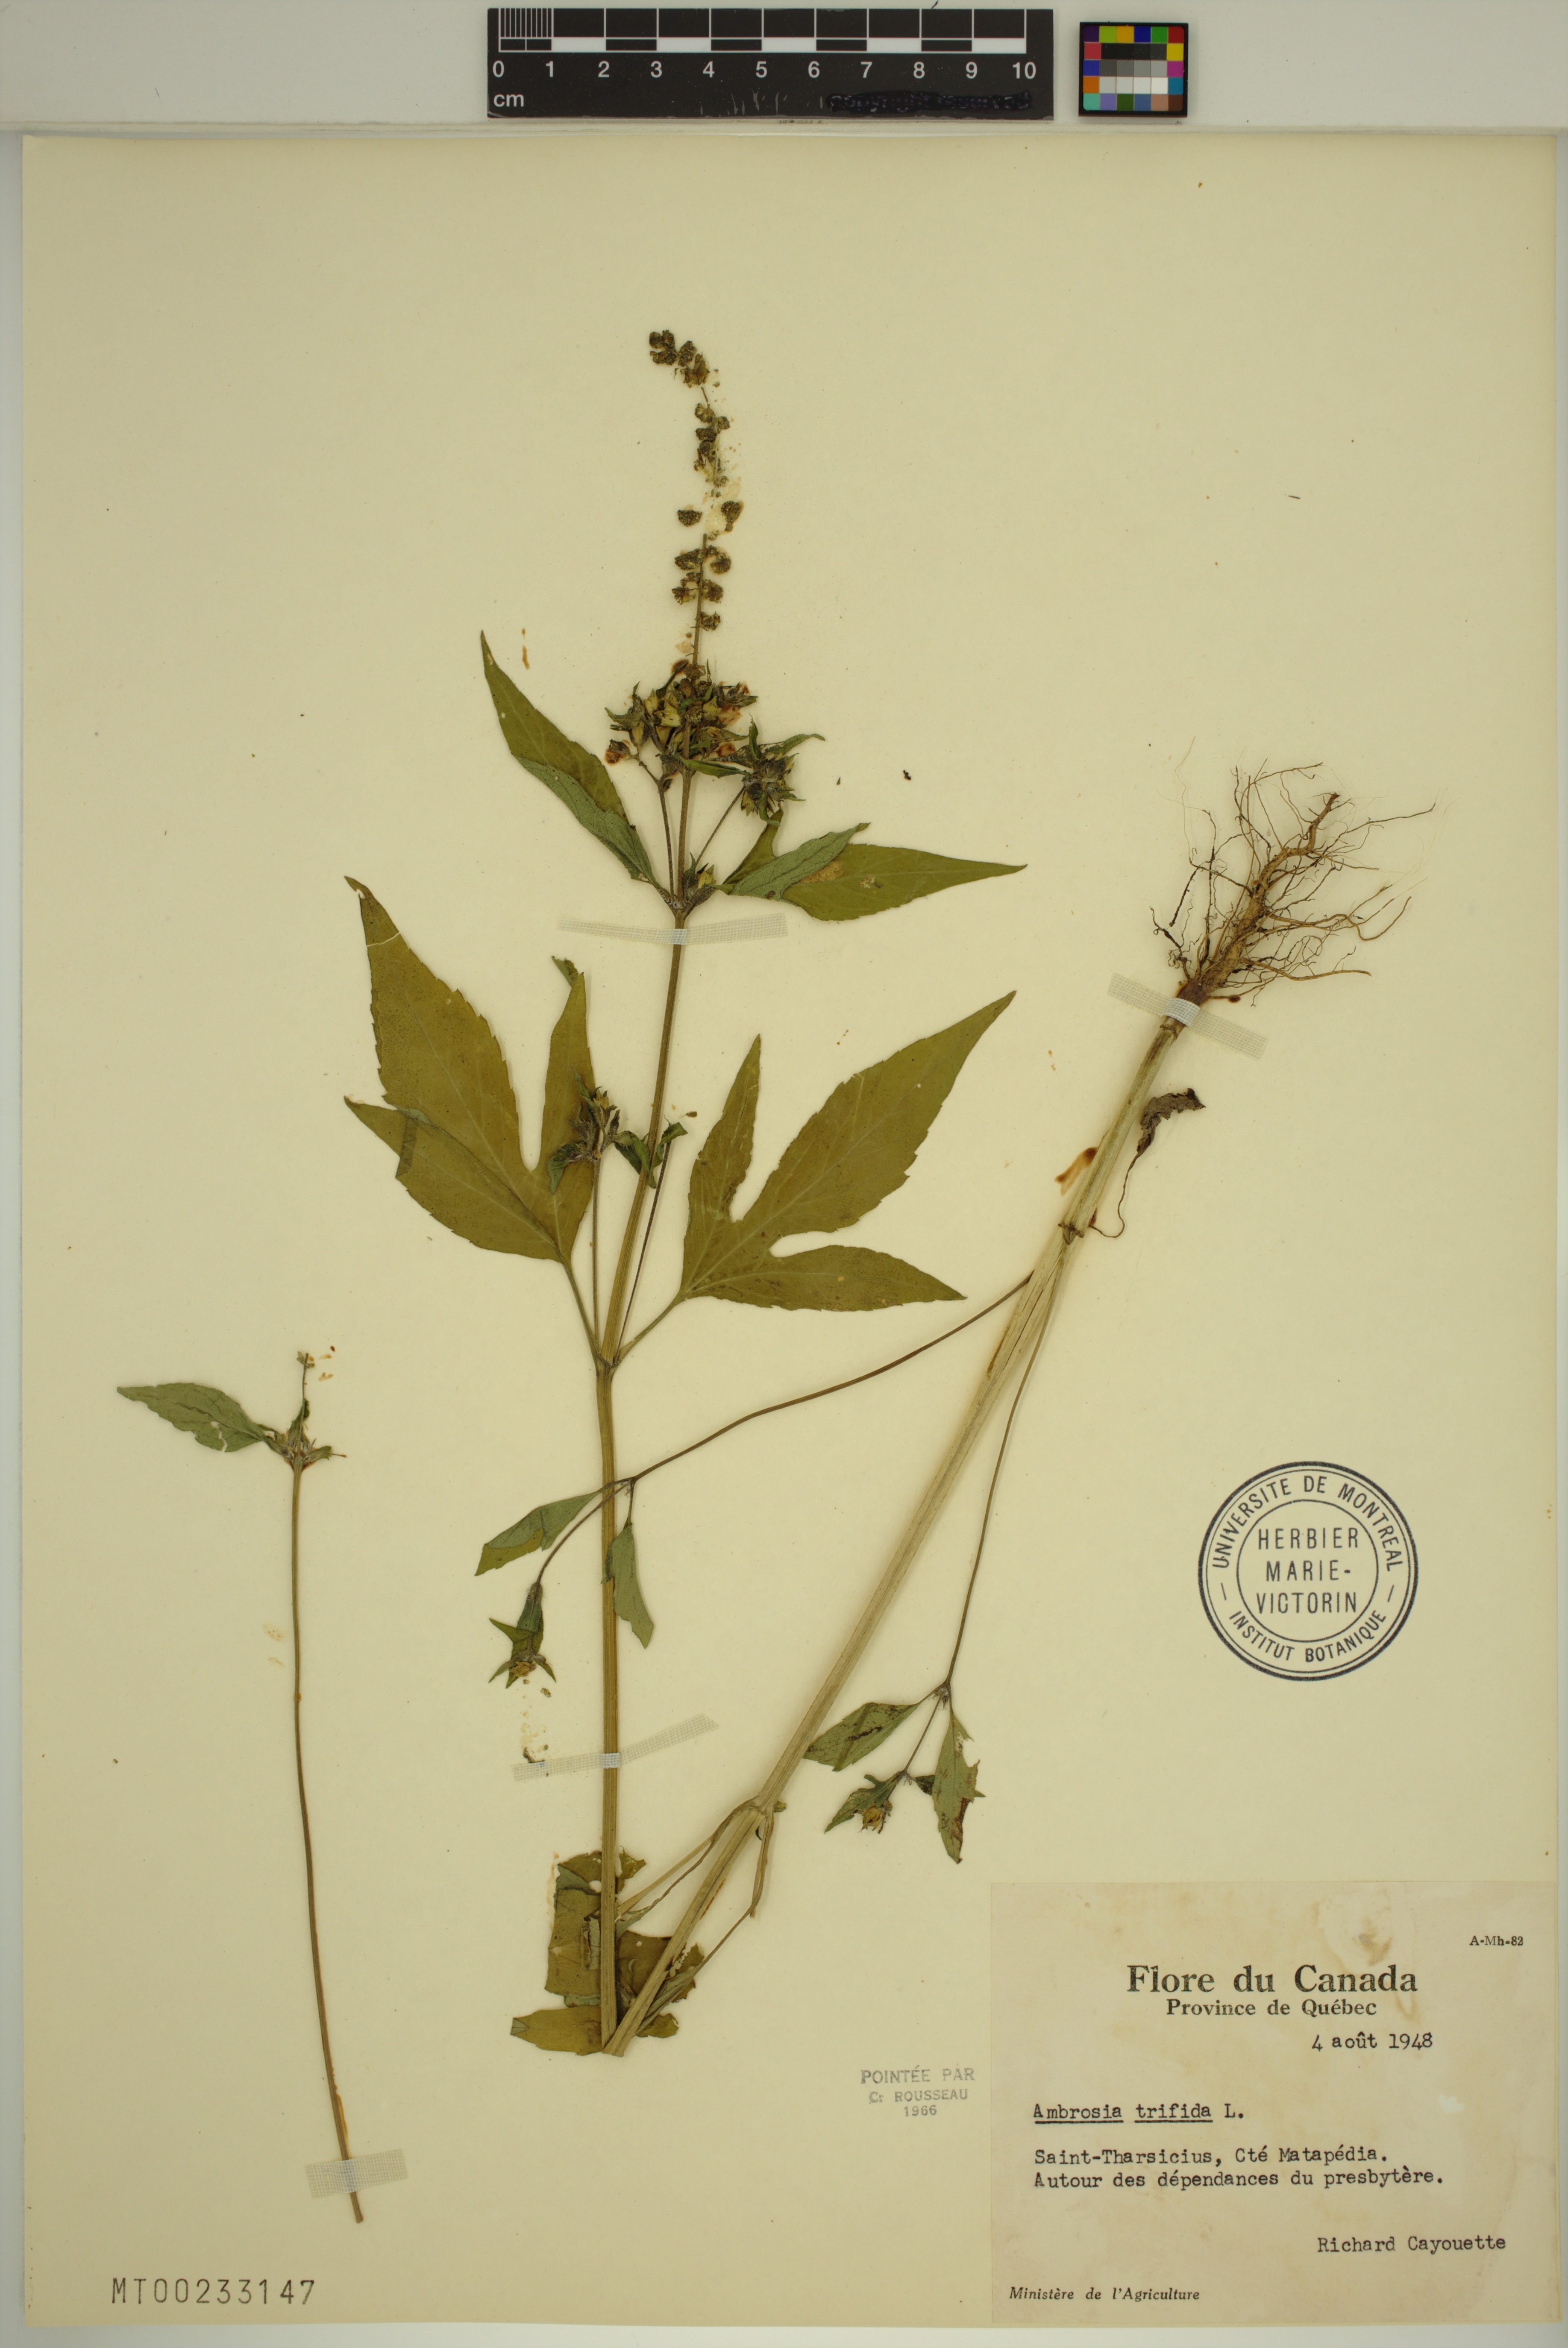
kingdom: Plantae
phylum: Tracheophyta
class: Magnoliopsida
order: Asterales
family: Asteraceae
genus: Ambrosia
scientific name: Ambrosia trifida
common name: Giant ragweed
